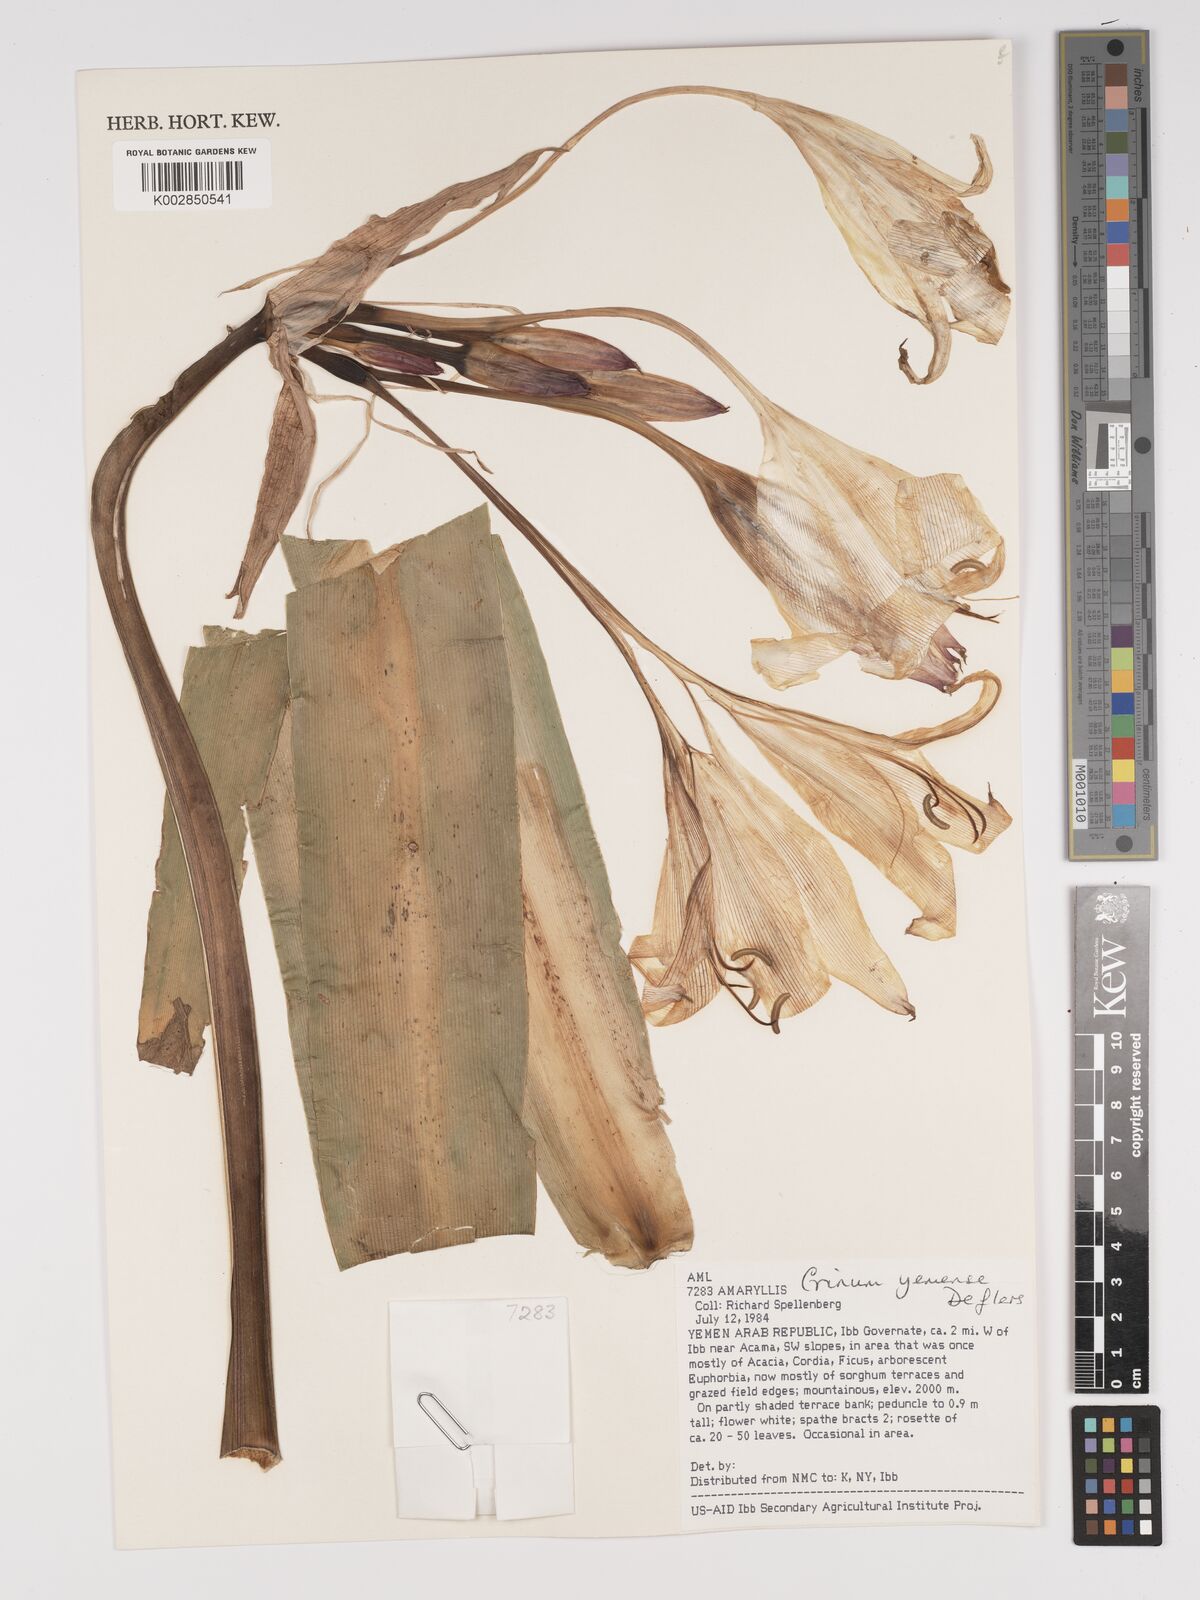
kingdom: Plantae
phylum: Tracheophyta
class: Liliopsida
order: Asparagales
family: Amaryllidaceae
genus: Crinum
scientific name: Crinum album
